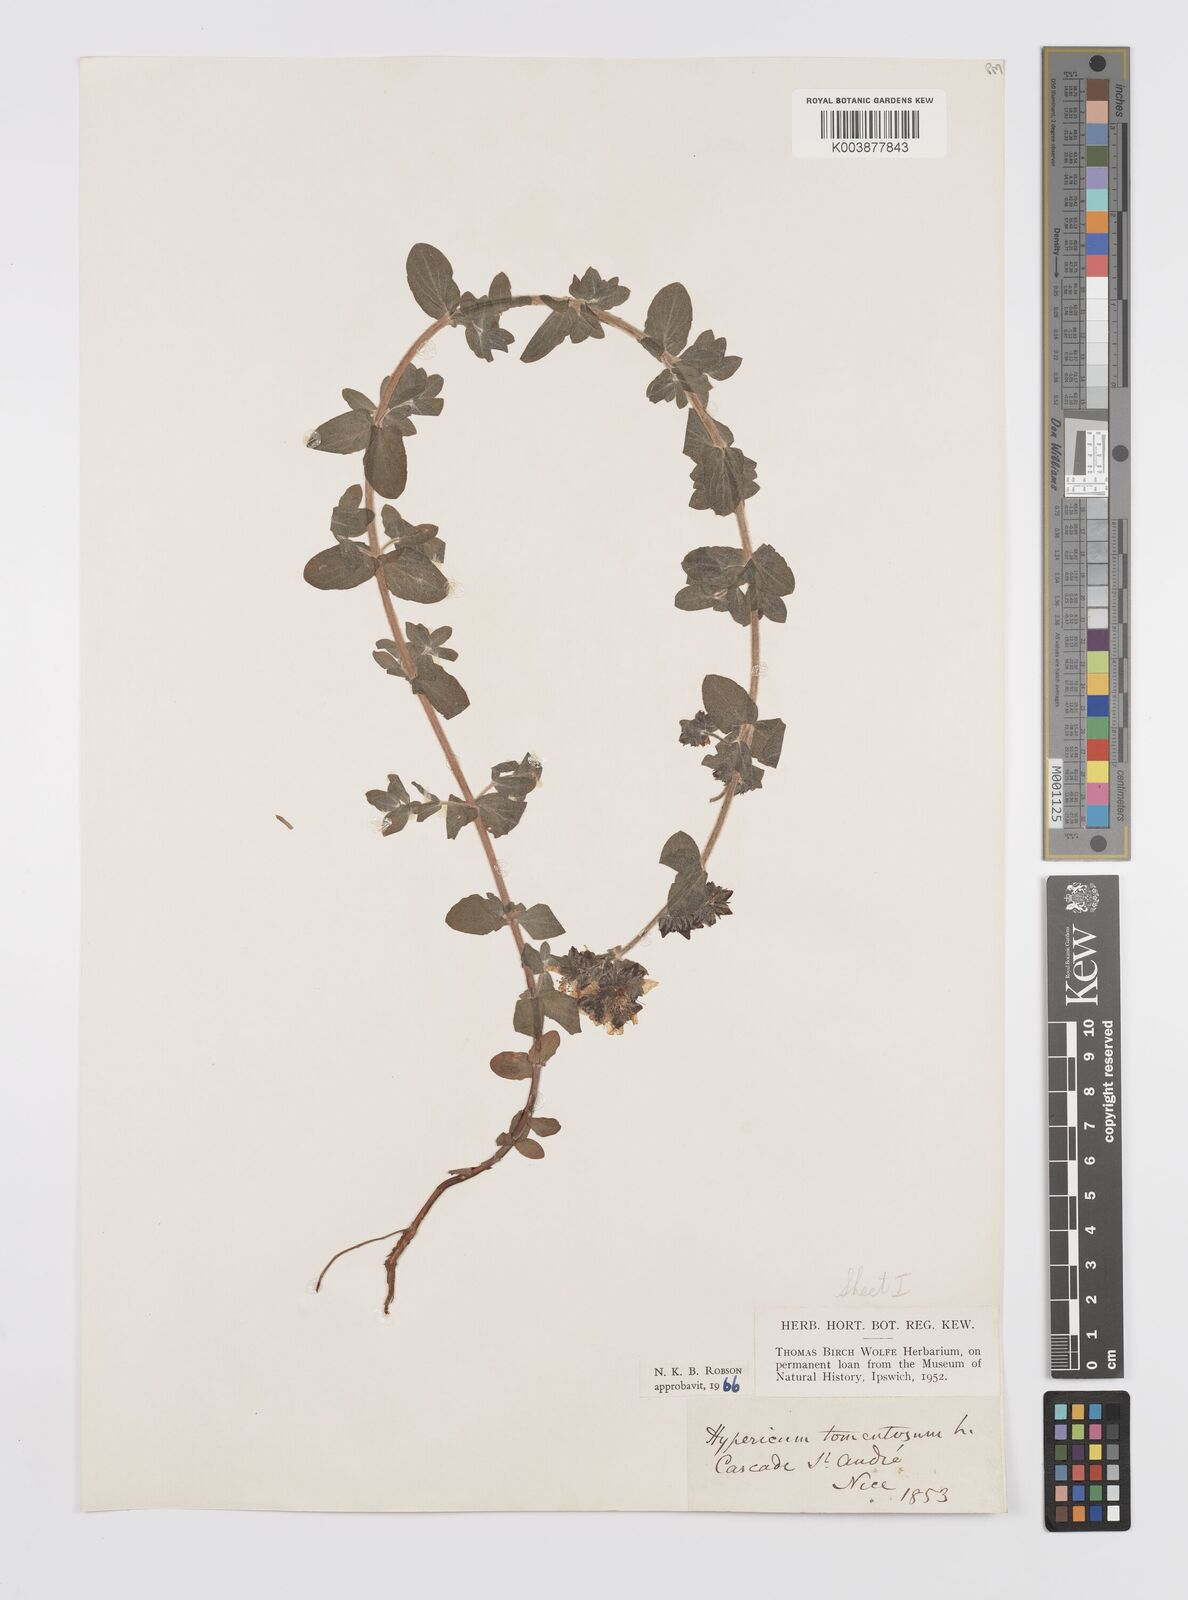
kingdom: Plantae
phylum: Tracheophyta
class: Magnoliopsida
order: Malpighiales
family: Hypericaceae
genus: Hypericum
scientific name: Hypericum tomentosum
